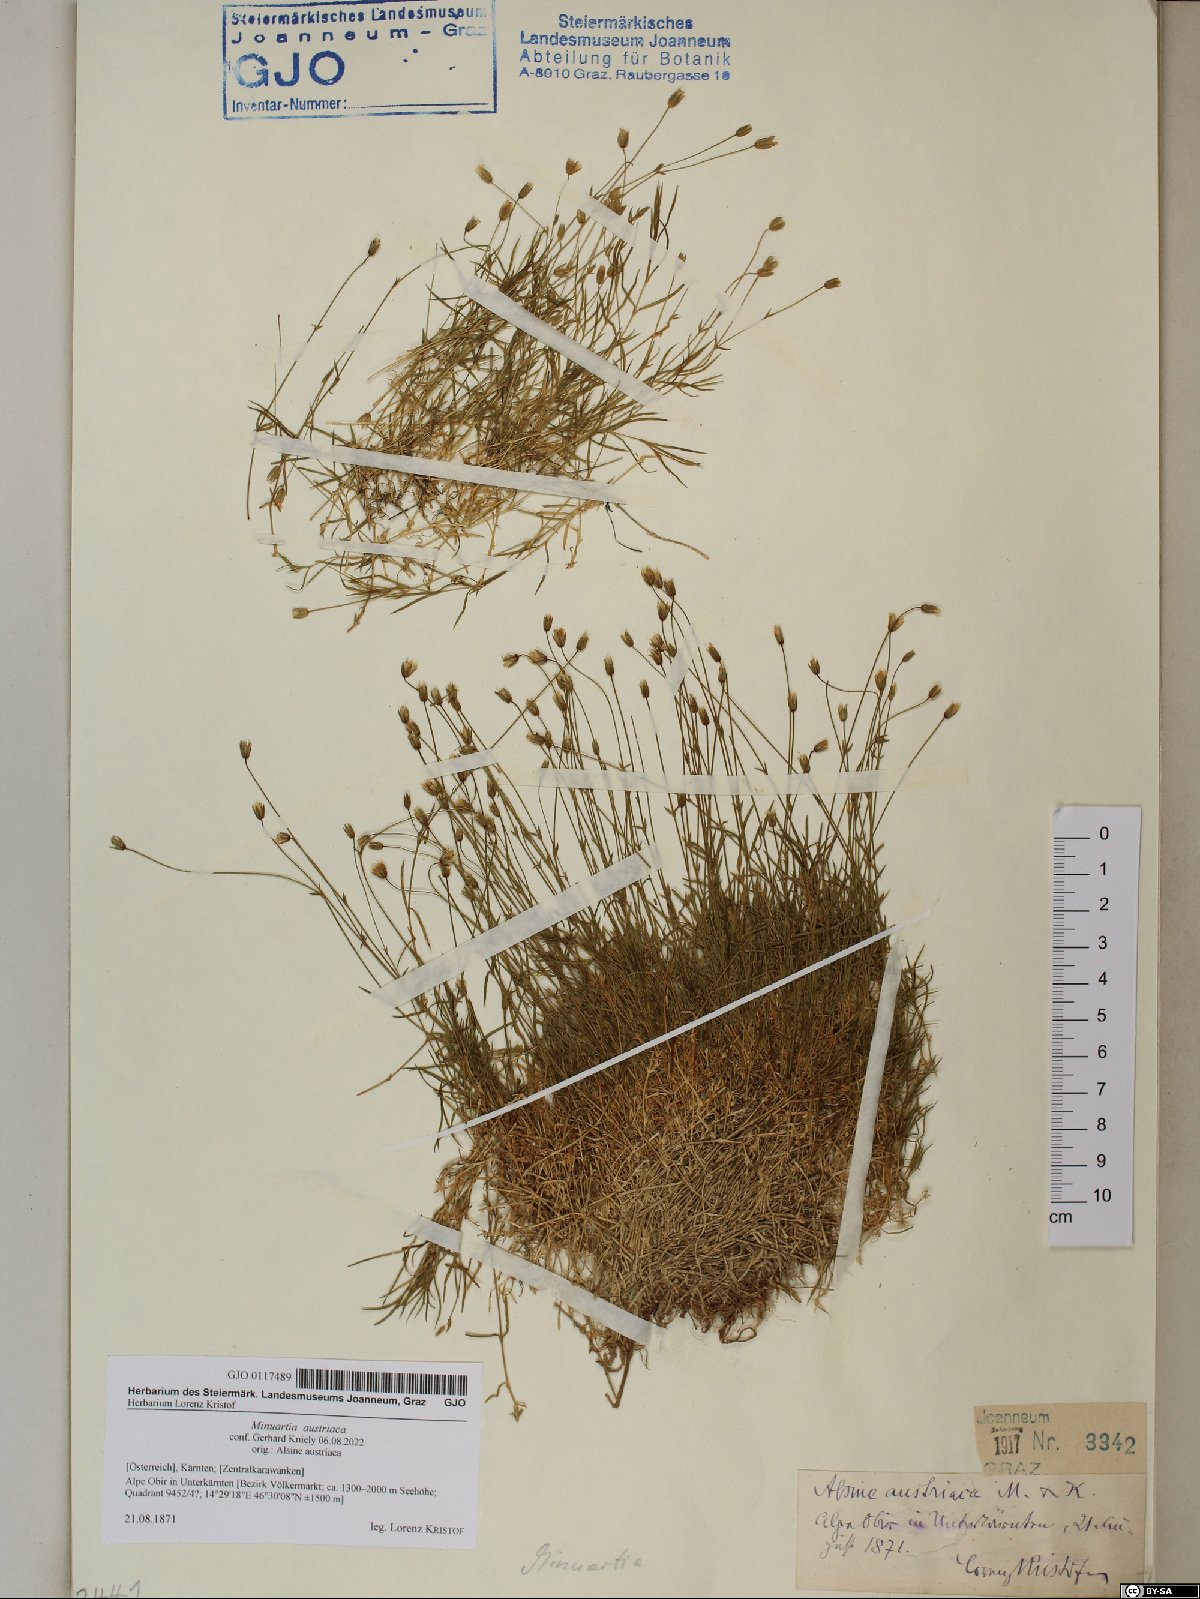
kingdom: Plantae
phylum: Tracheophyta
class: Magnoliopsida
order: Caryophyllales
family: Caryophyllaceae
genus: Sabulina
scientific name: Sabulina austriaca
